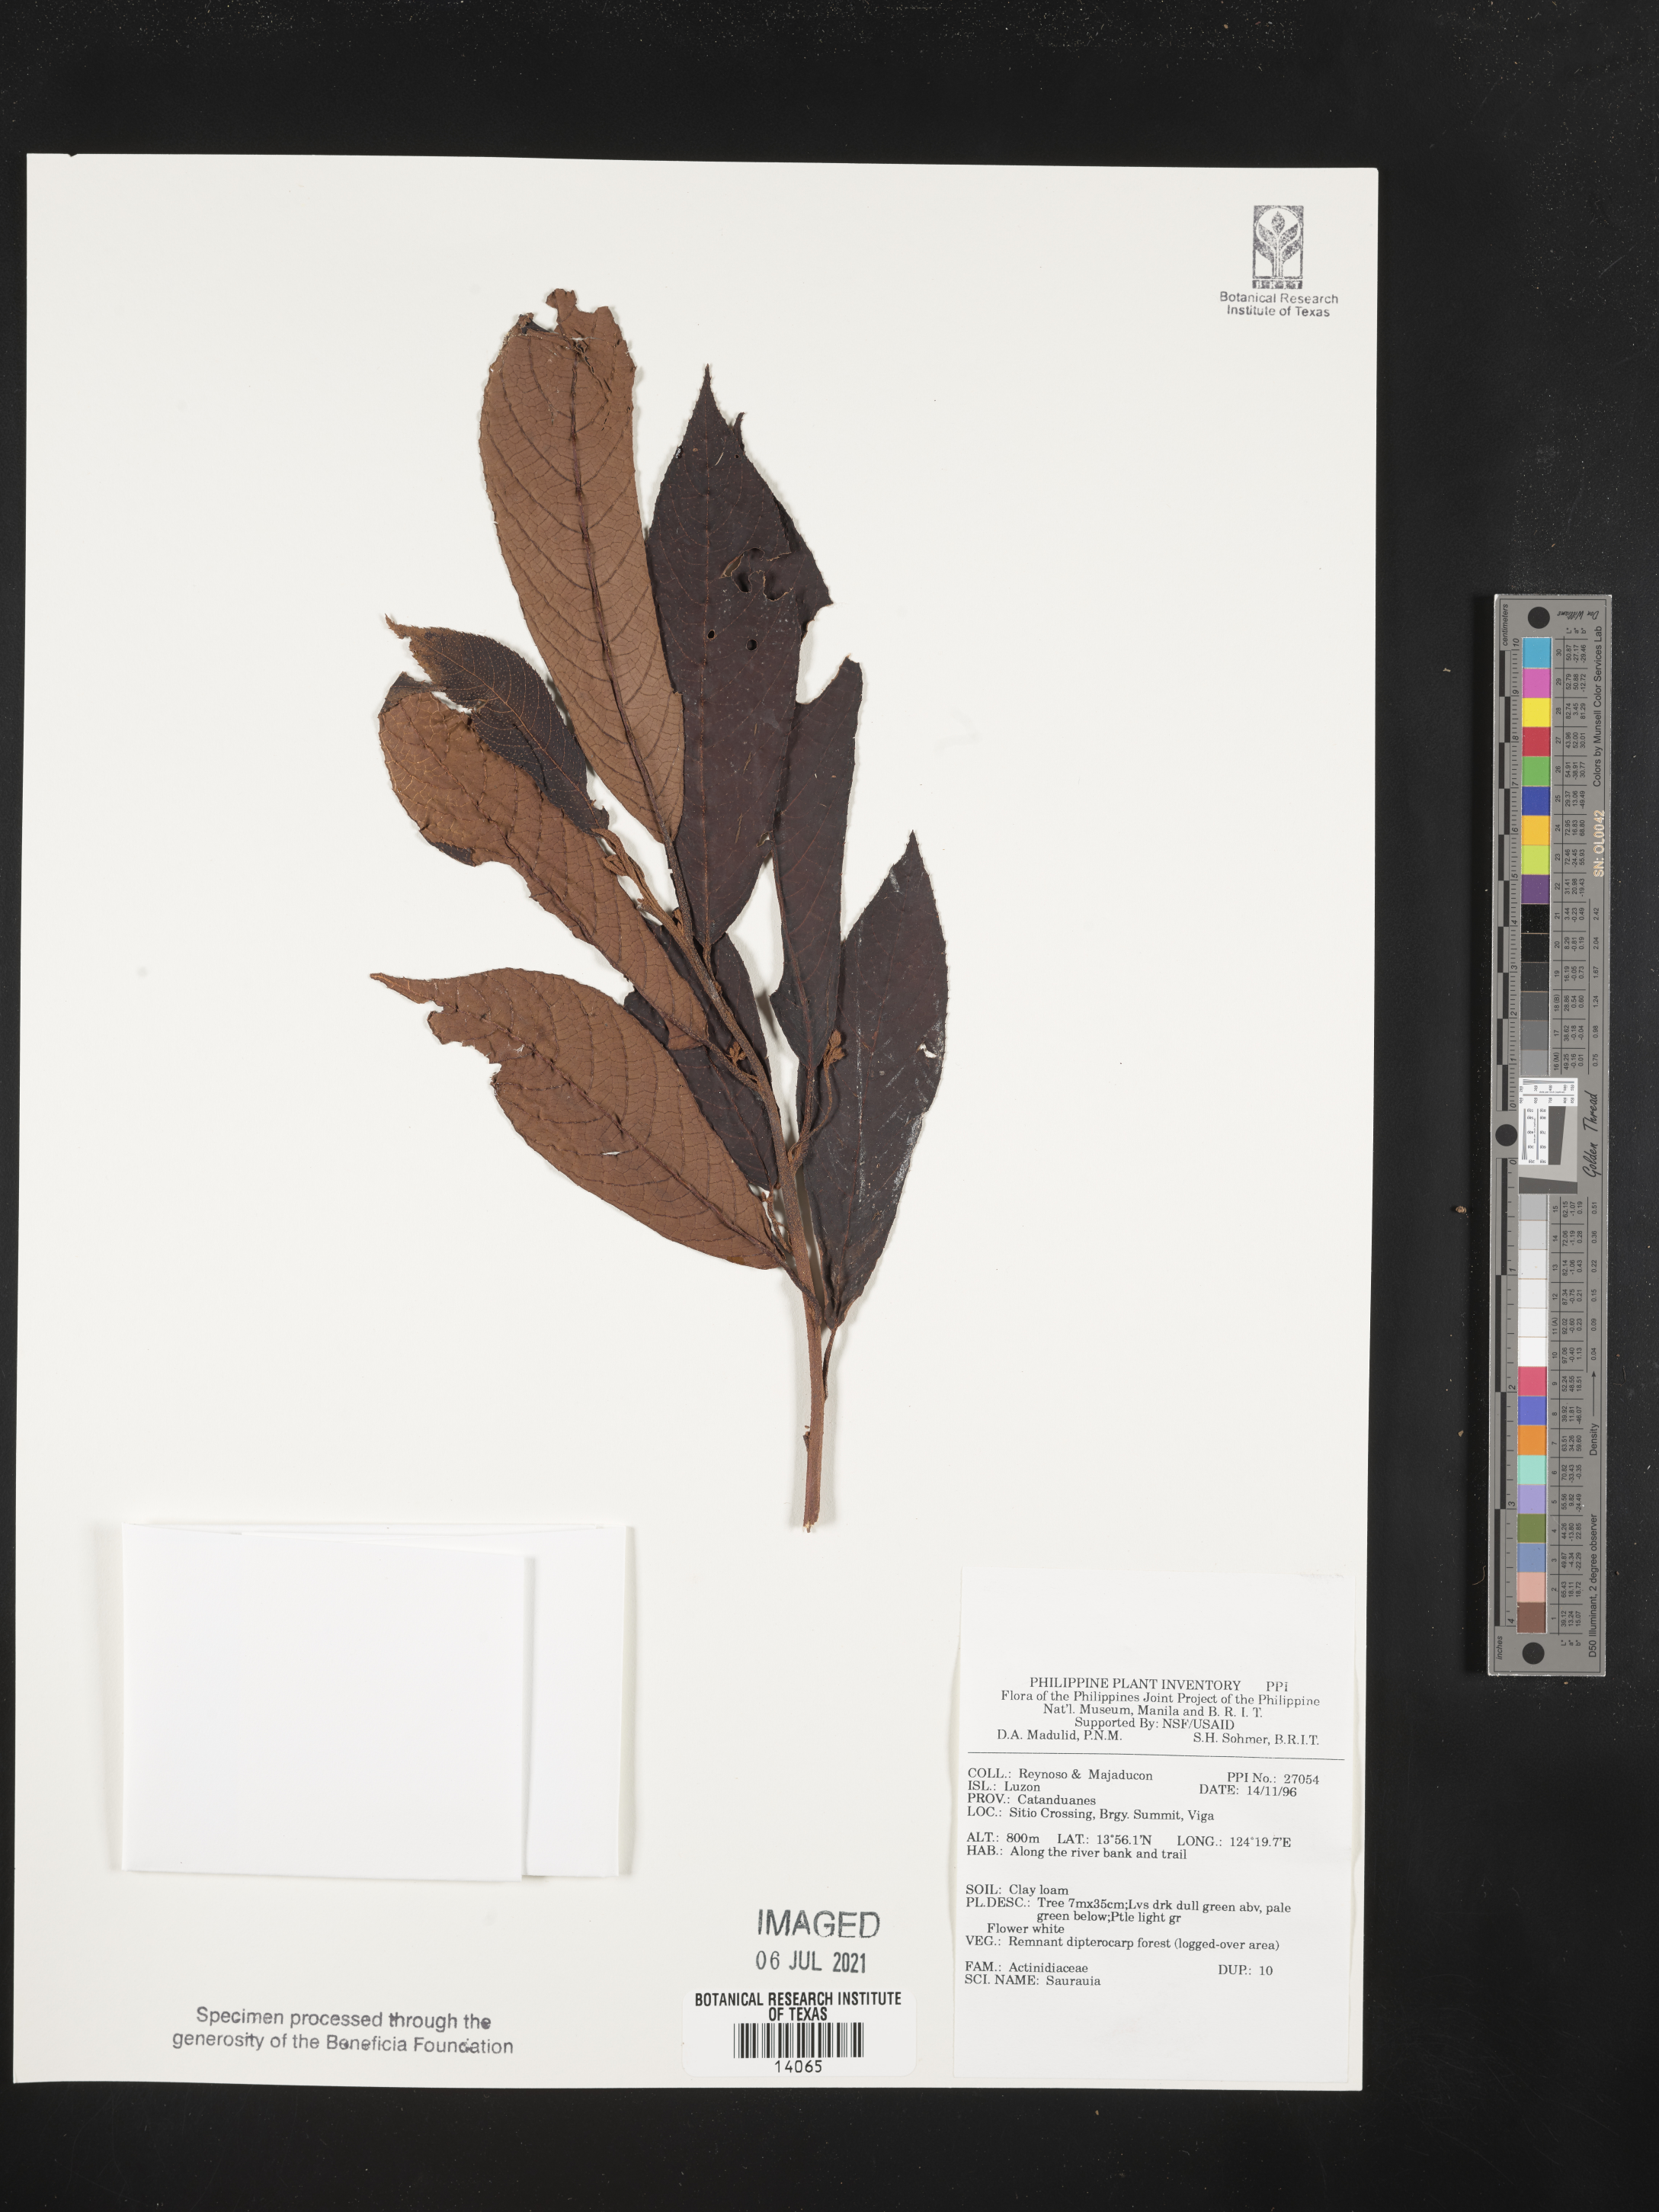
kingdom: Plantae
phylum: Tracheophyta
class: Magnoliopsida
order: Ericales
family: Actinidiaceae
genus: Saurauia
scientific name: Saurauia
